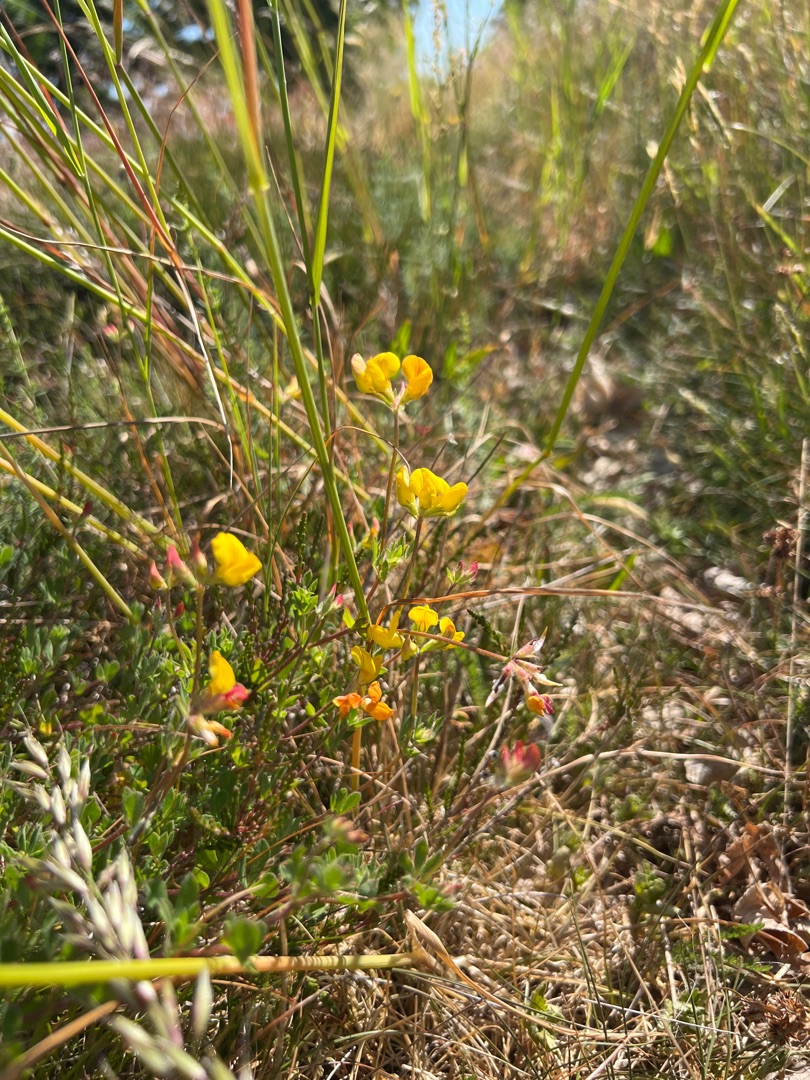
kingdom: Plantae
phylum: Tracheophyta
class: Magnoliopsida
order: Fabales
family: Fabaceae
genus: Lotus
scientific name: Lotus corniculatus
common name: Almindelig kællingetand
